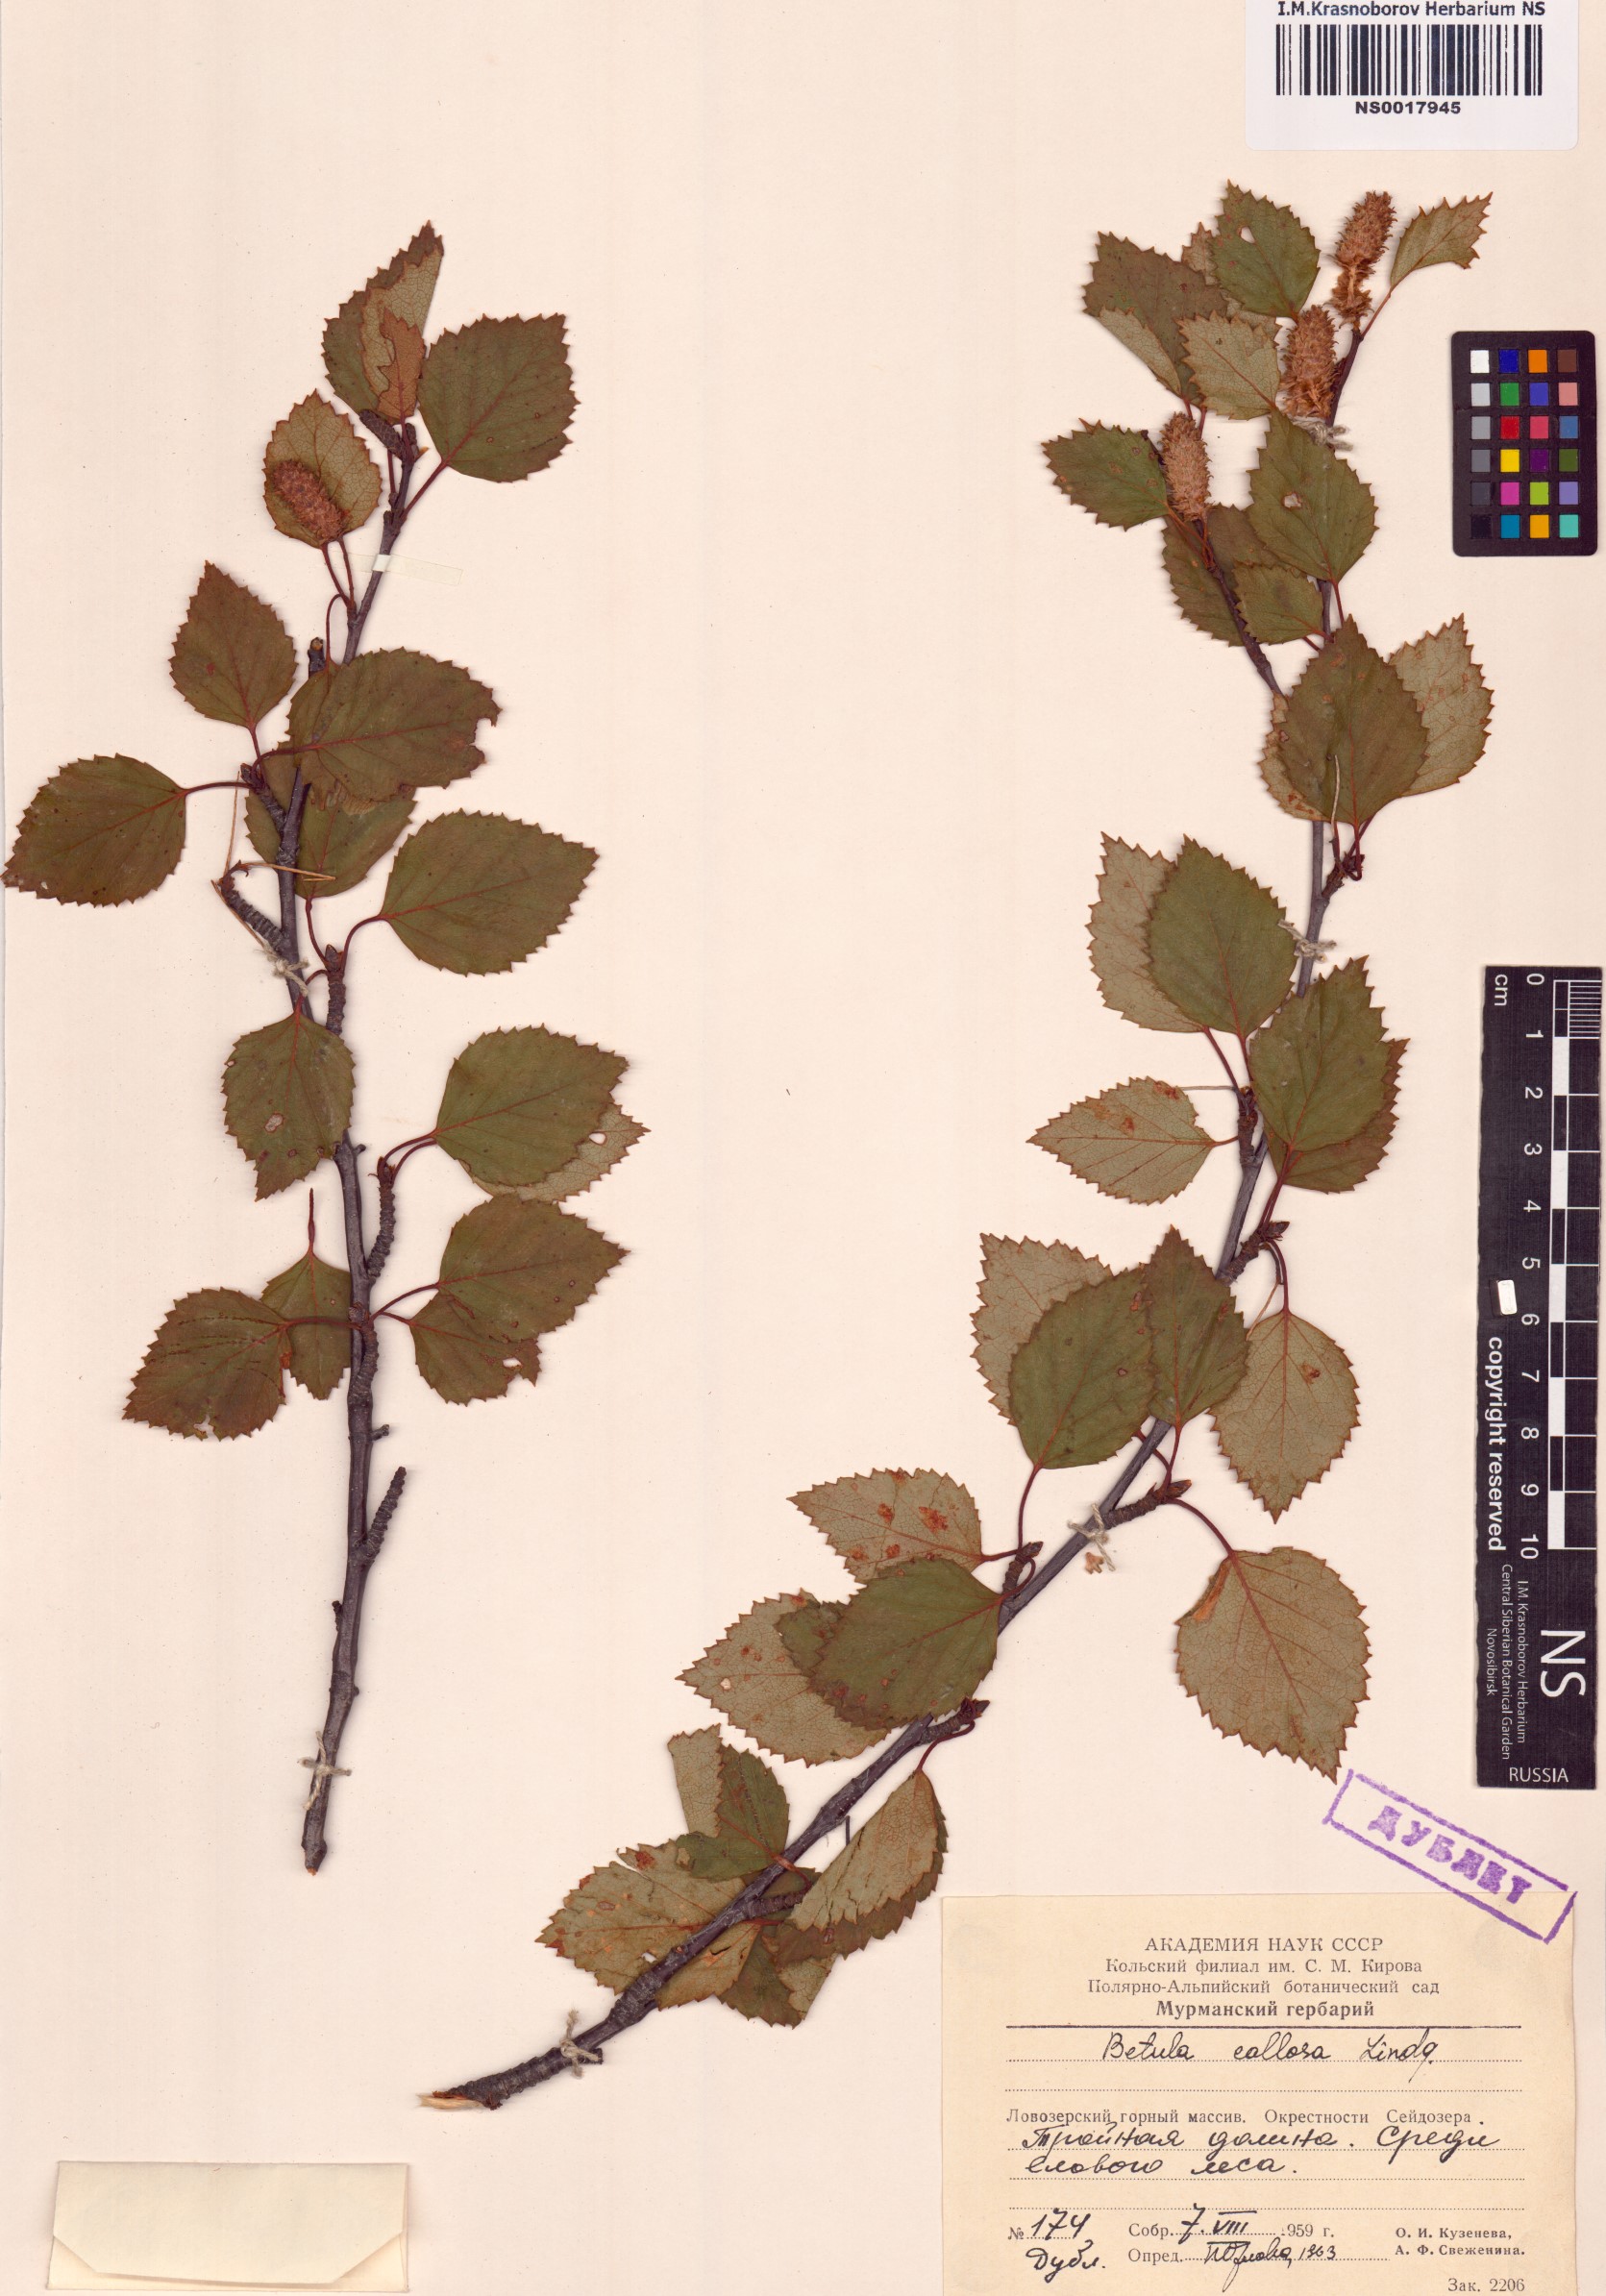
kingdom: Plantae
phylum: Tracheophyta
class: Magnoliopsida
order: Fagales
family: Betulaceae
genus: Betula
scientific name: Betula pubescens
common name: Downy birch
